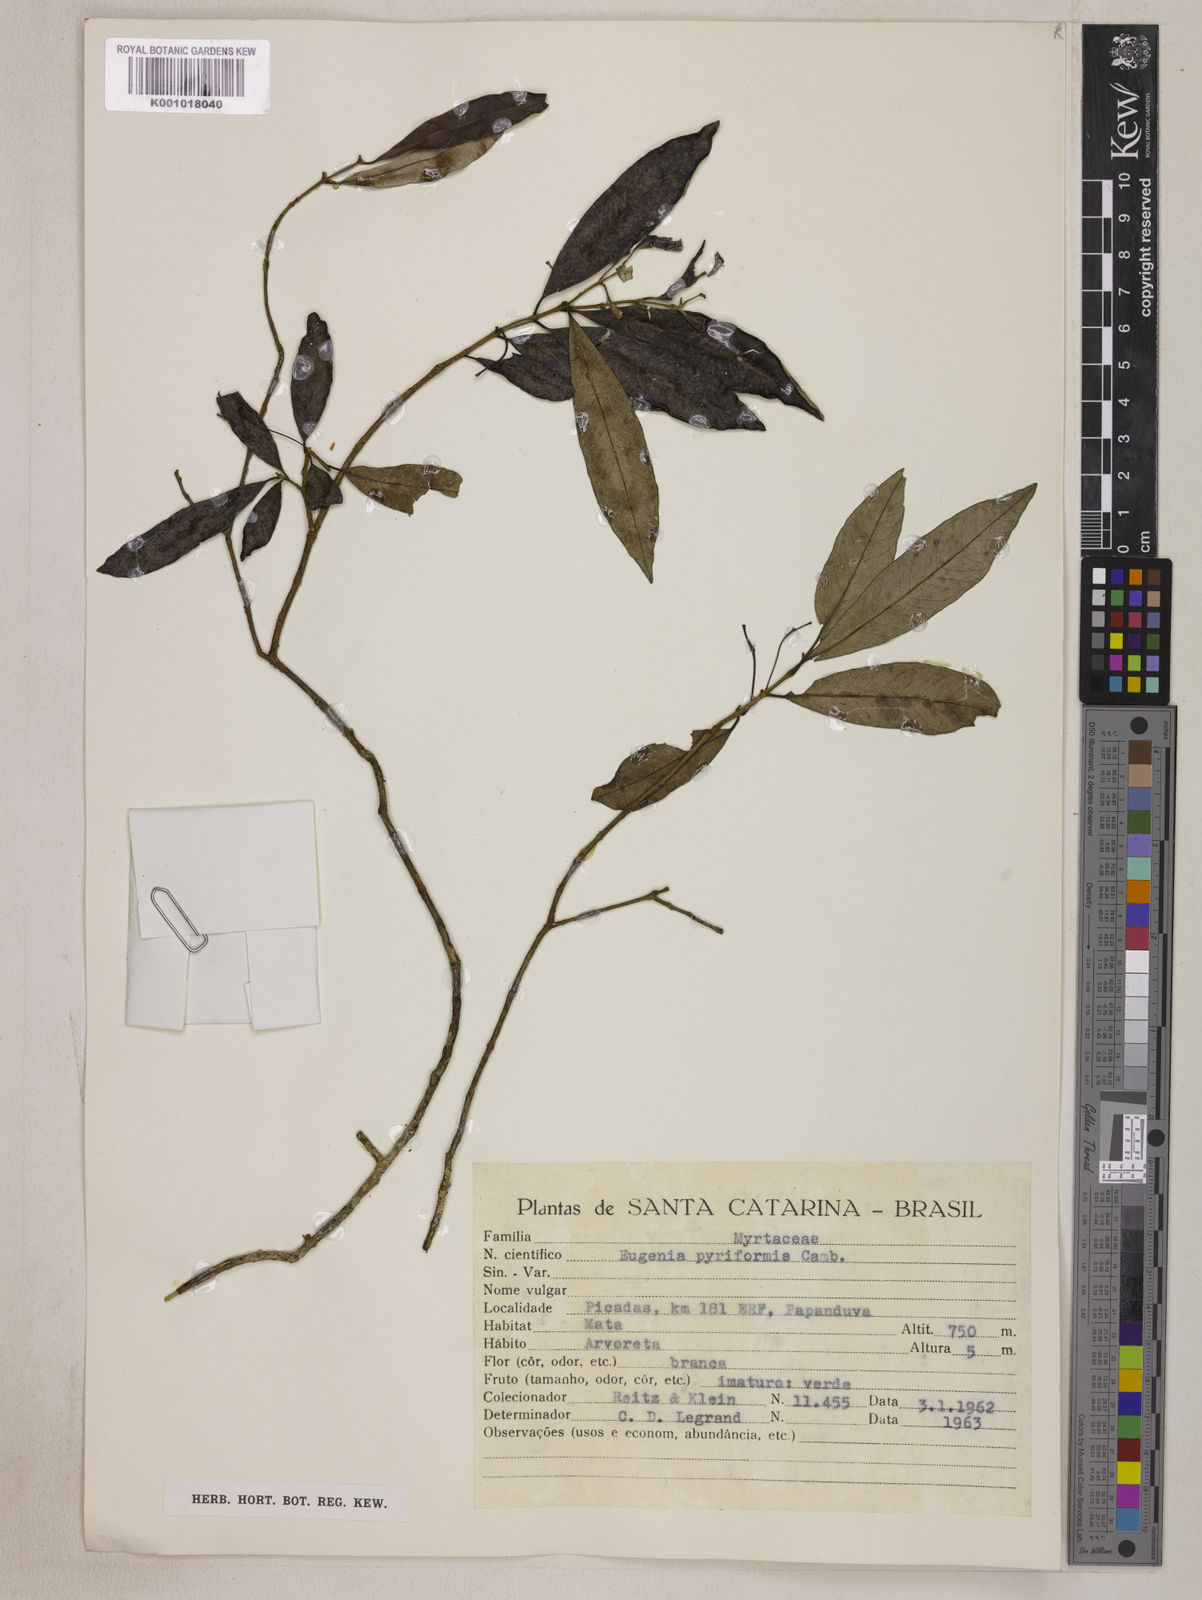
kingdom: Plantae
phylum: Tracheophyta
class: Magnoliopsida
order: Myrtales
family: Myrtaceae
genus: Eugenia
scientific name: Eugenia pyriformis
